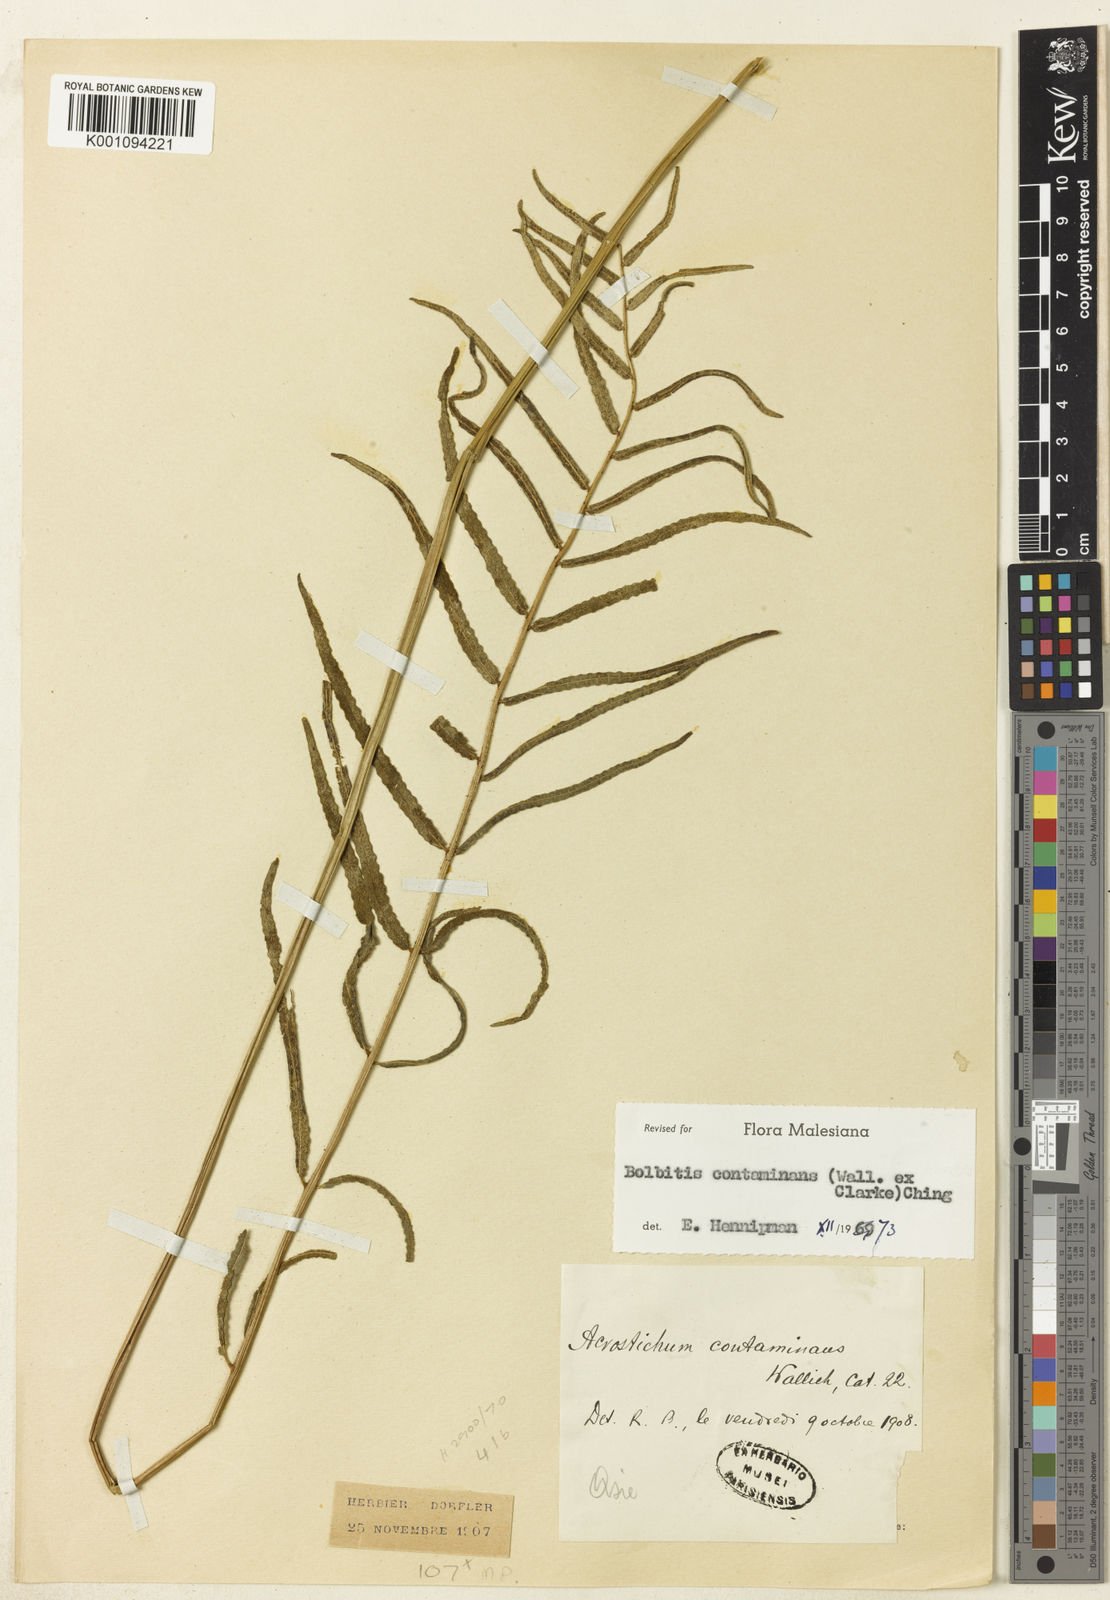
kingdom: Plantae
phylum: Tracheophyta
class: Polypodiopsida
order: Polypodiales
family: Dryopteridaceae
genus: Bolbitis
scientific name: Bolbitis semicordata
